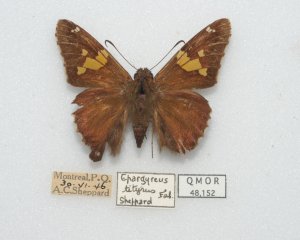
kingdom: Animalia
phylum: Arthropoda
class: Insecta
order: Lepidoptera
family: Hesperiidae
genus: Epargyreus
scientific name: Epargyreus clarus
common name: Silver-spotted Skipper
